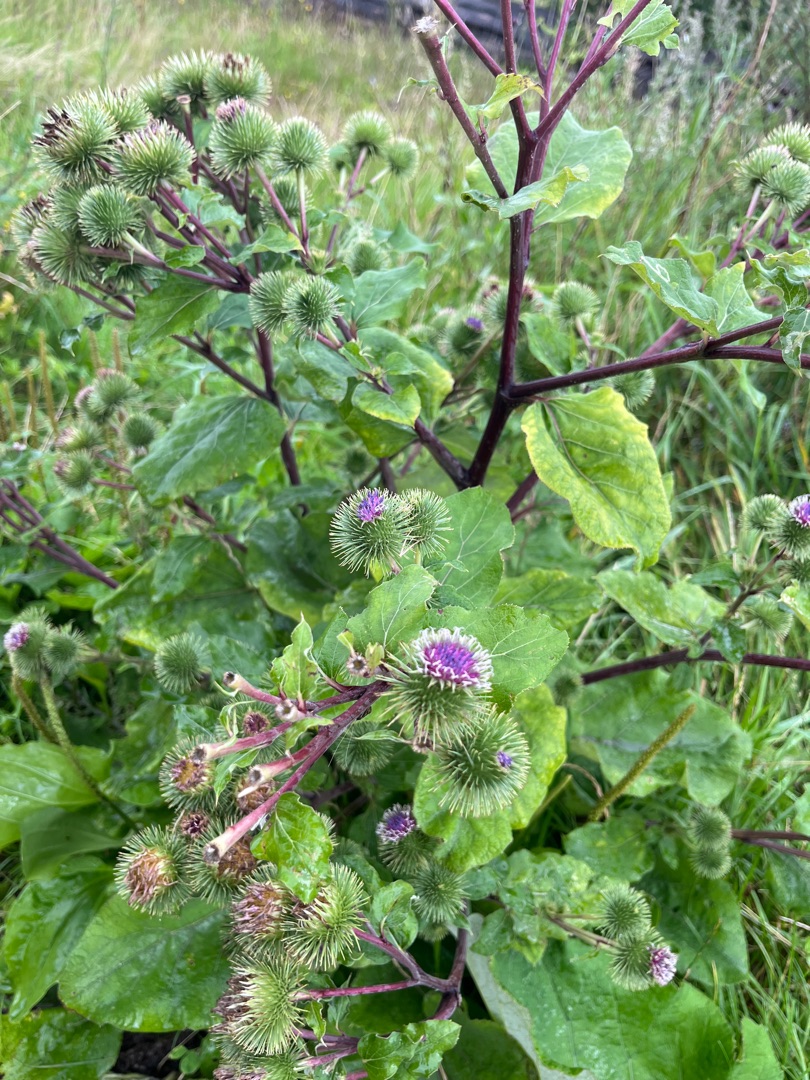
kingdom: Plantae
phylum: Tracheophyta
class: Magnoliopsida
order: Asterales
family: Asteraceae
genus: Arctium
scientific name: Arctium lappa
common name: Glat burre
